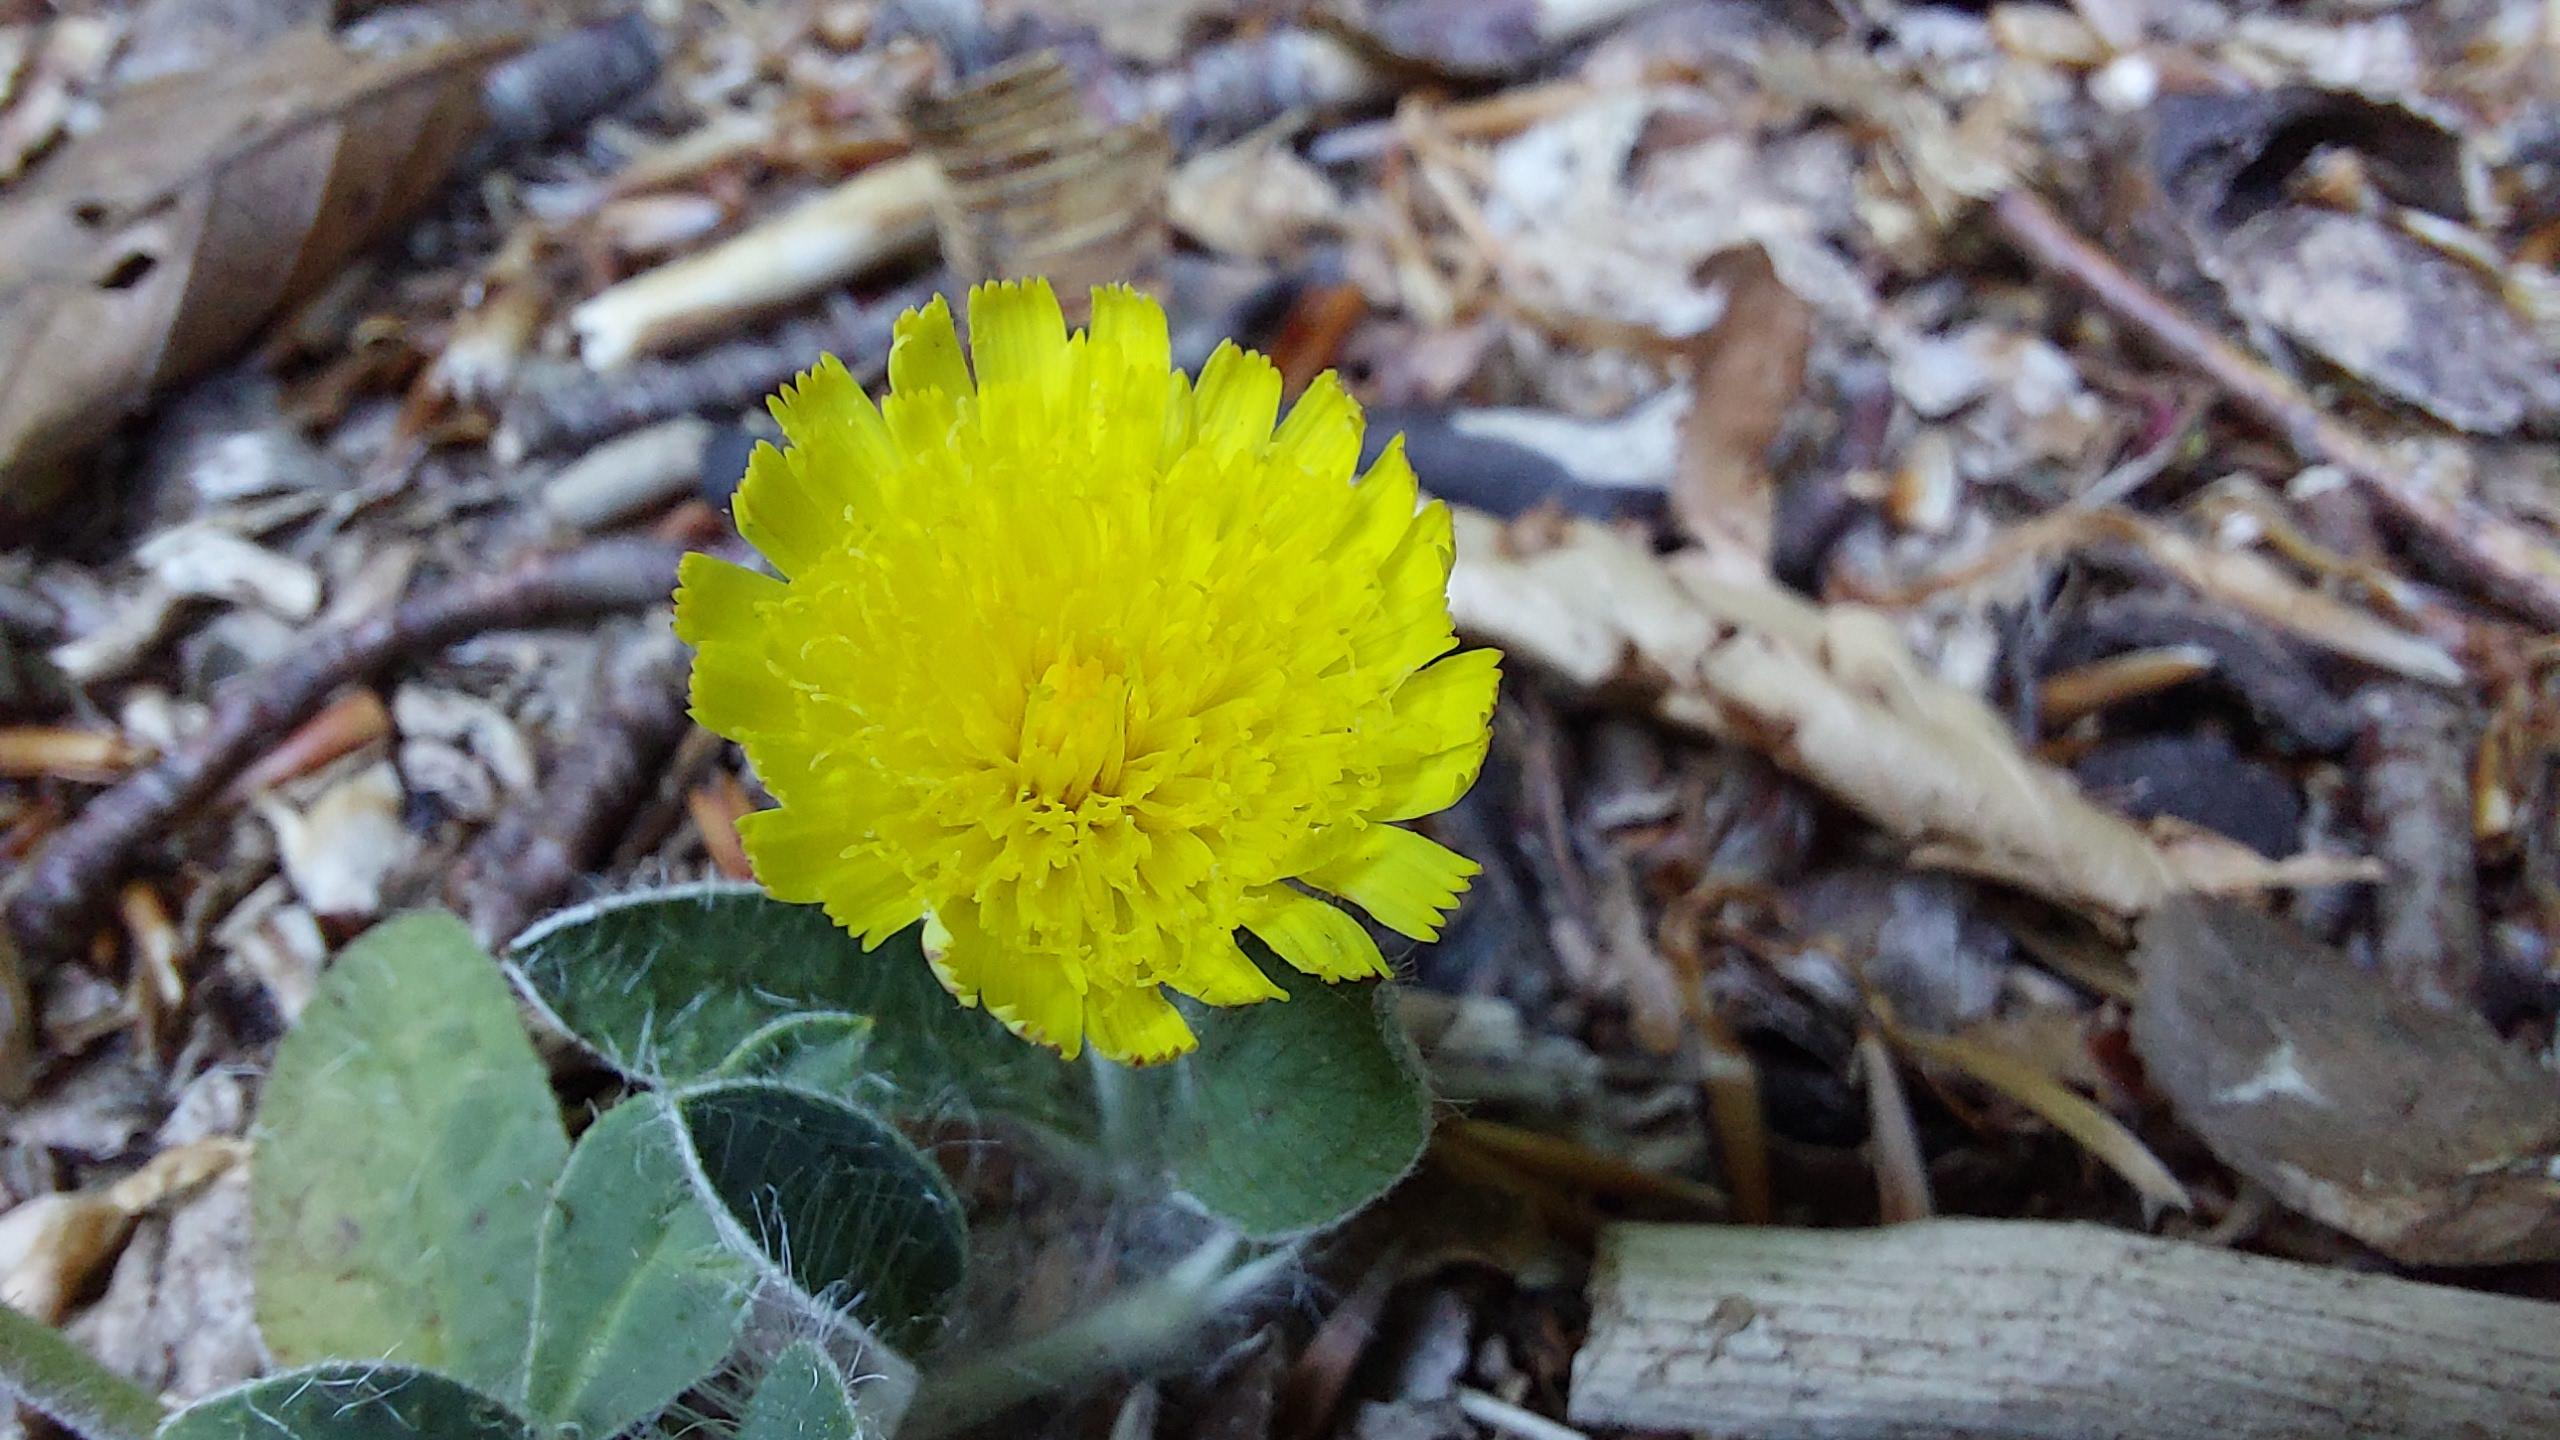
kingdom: Plantae
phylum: Tracheophyta
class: Magnoliopsida
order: Asterales
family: Asteraceae
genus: Pilosella
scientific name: Pilosella officinarum
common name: Håret høgeurt
